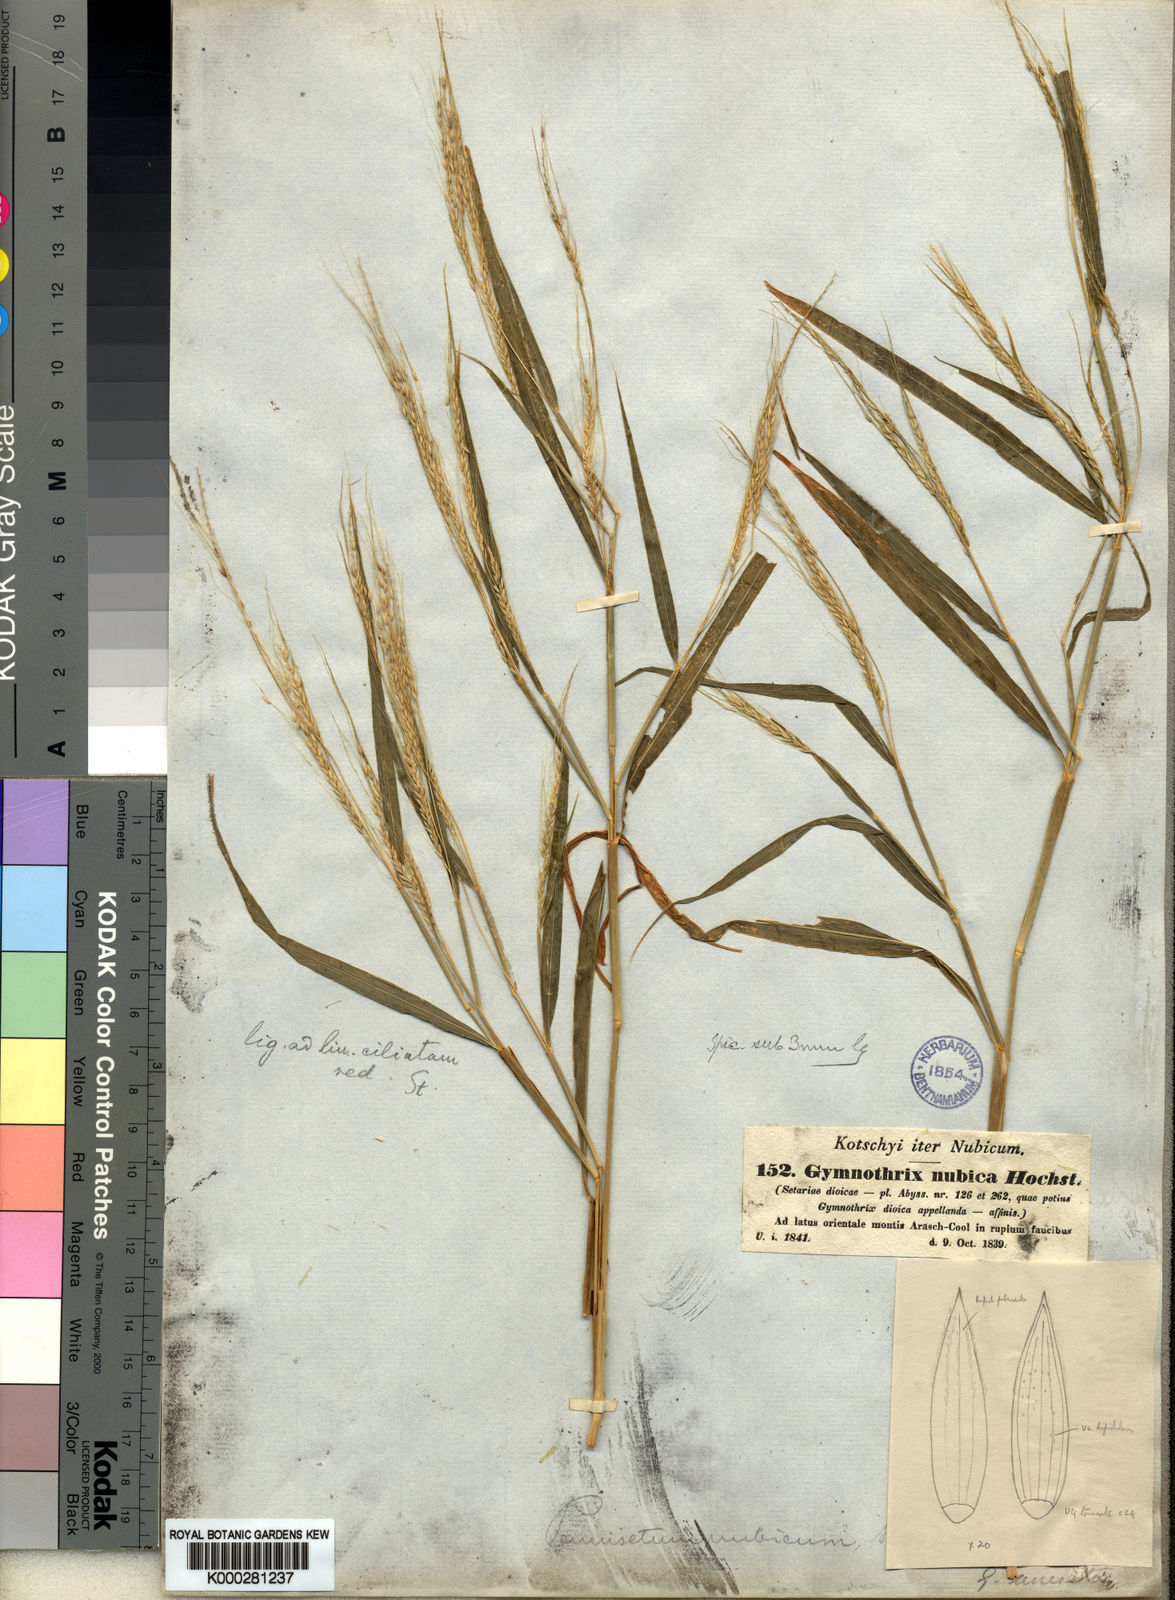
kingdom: Plantae
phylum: Tracheophyta
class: Liliopsida
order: Poales
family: Poaceae
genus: Cenchrus
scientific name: Cenchrus Pennisetum spec
